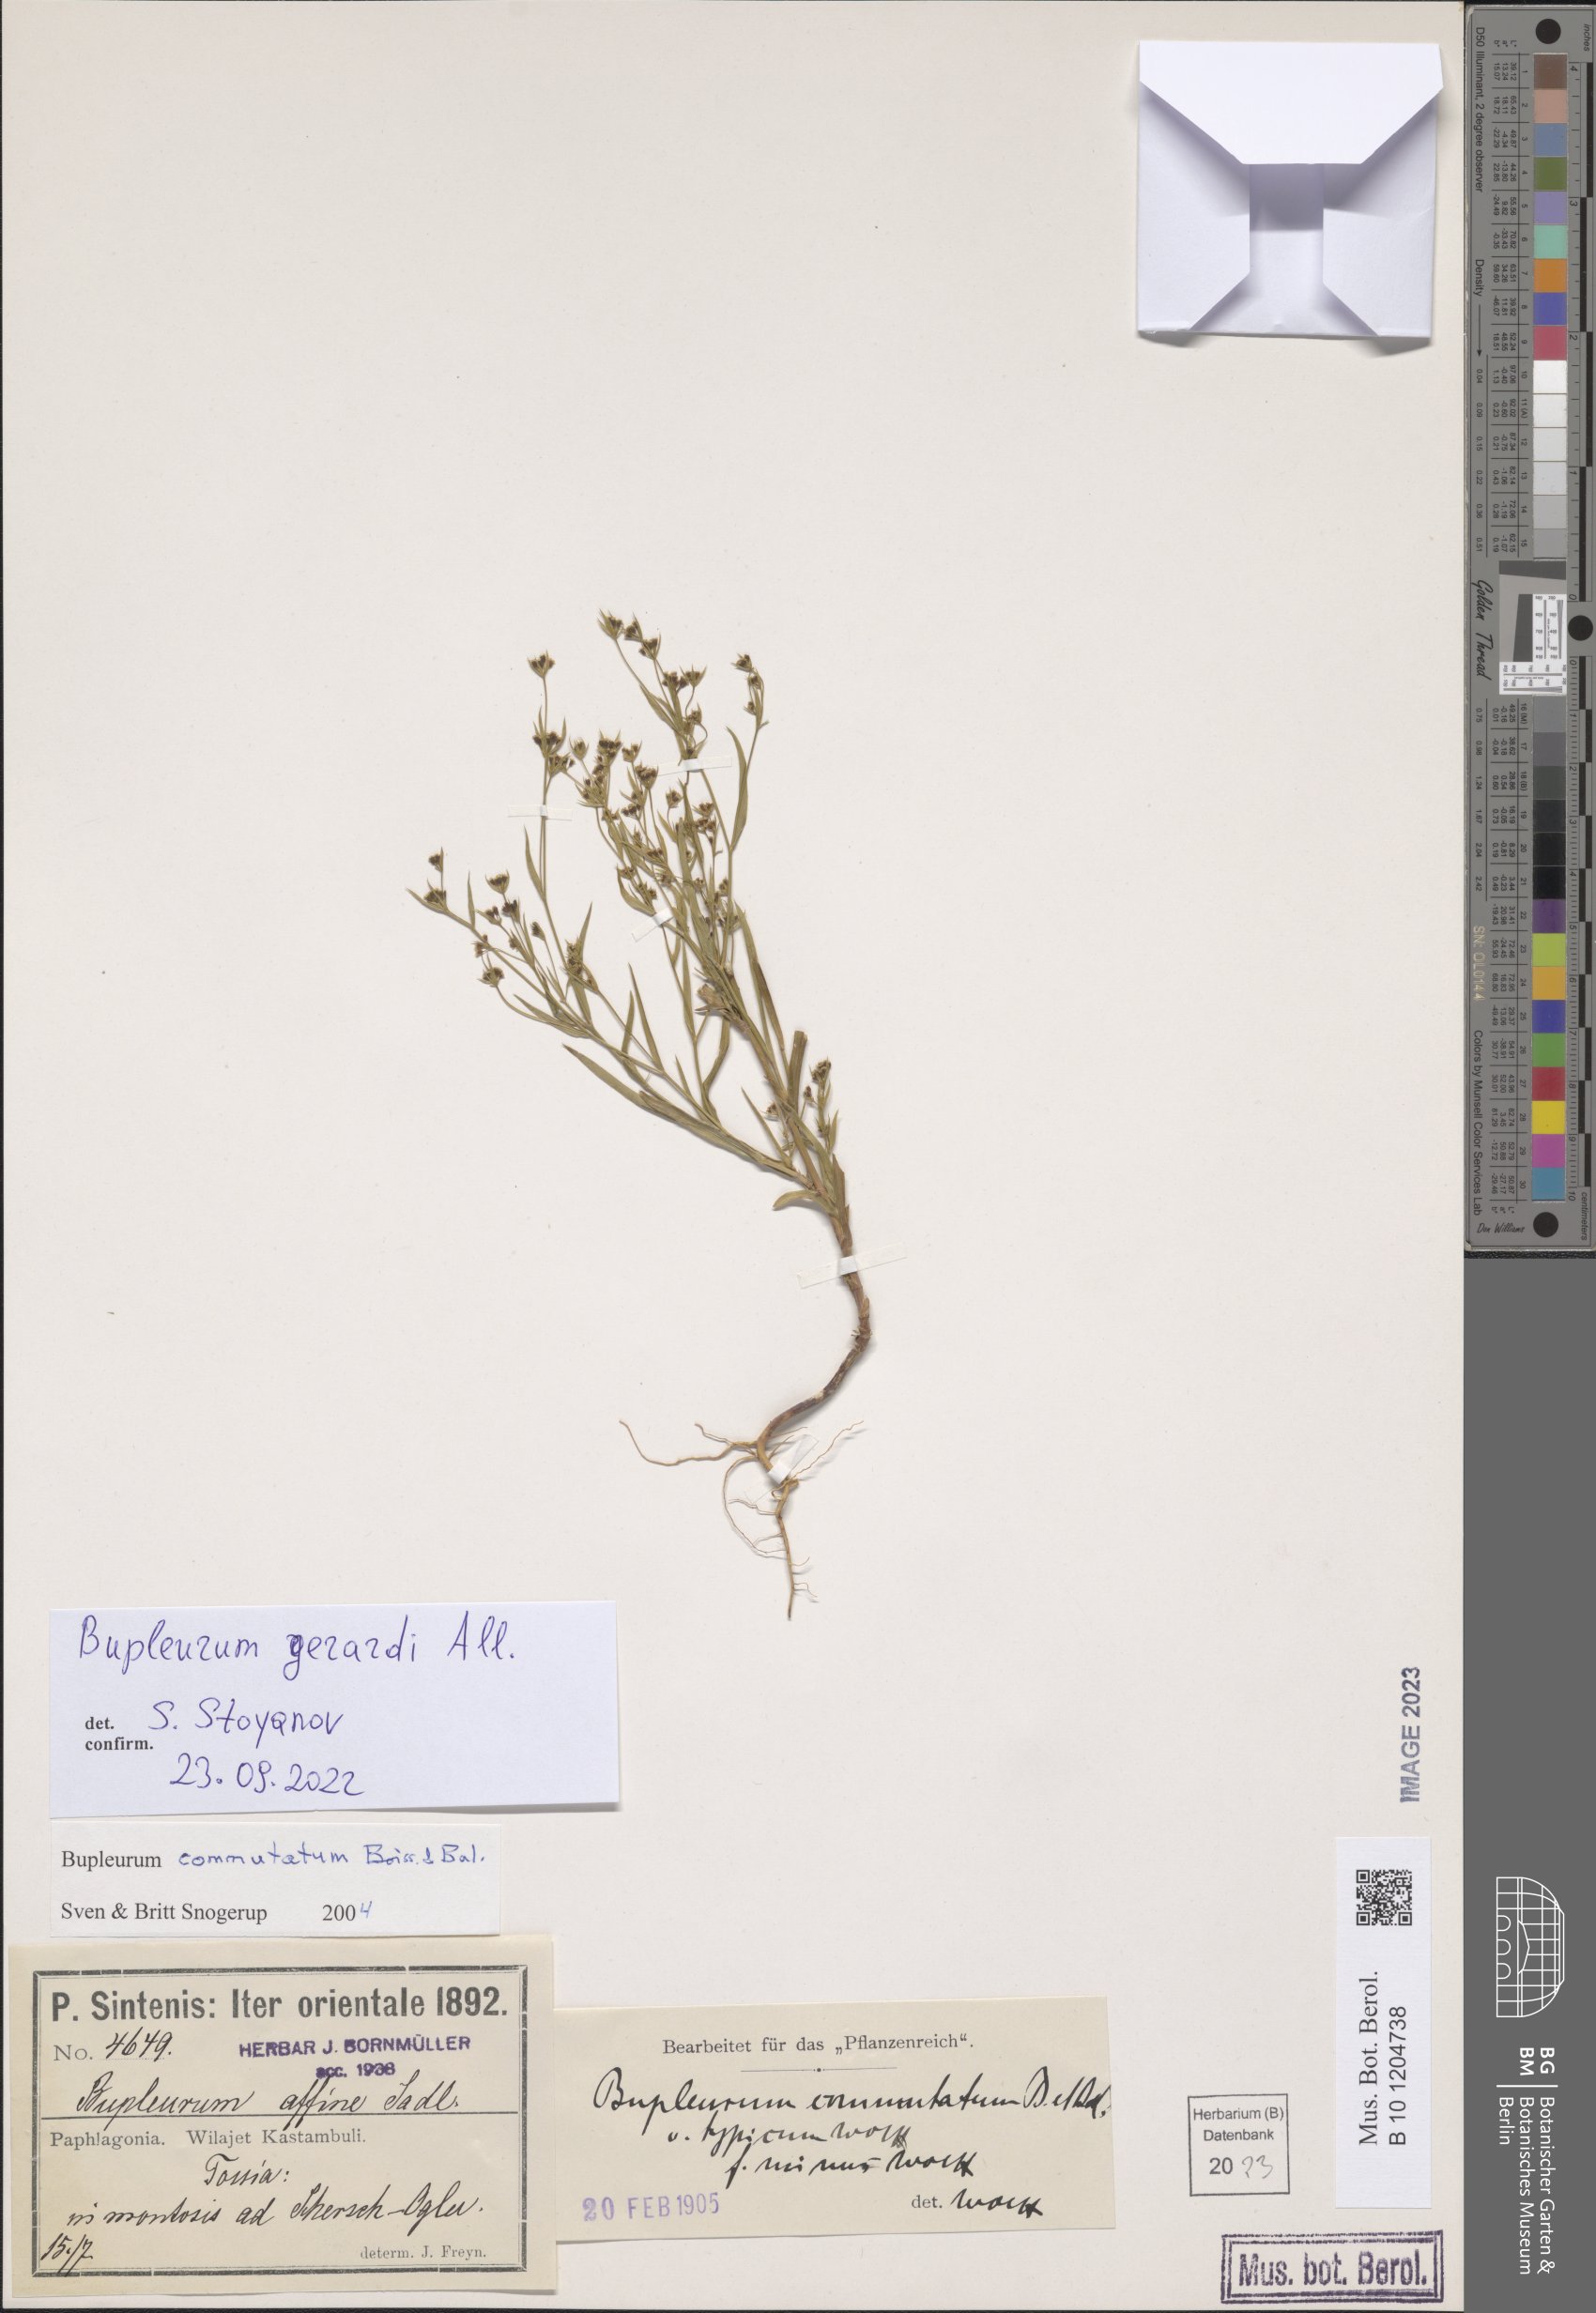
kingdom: Plantae
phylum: Tracheophyta
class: Magnoliopsida
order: Apiales
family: Apiaceae
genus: Bupleurum
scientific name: Bupleurum gerardi
